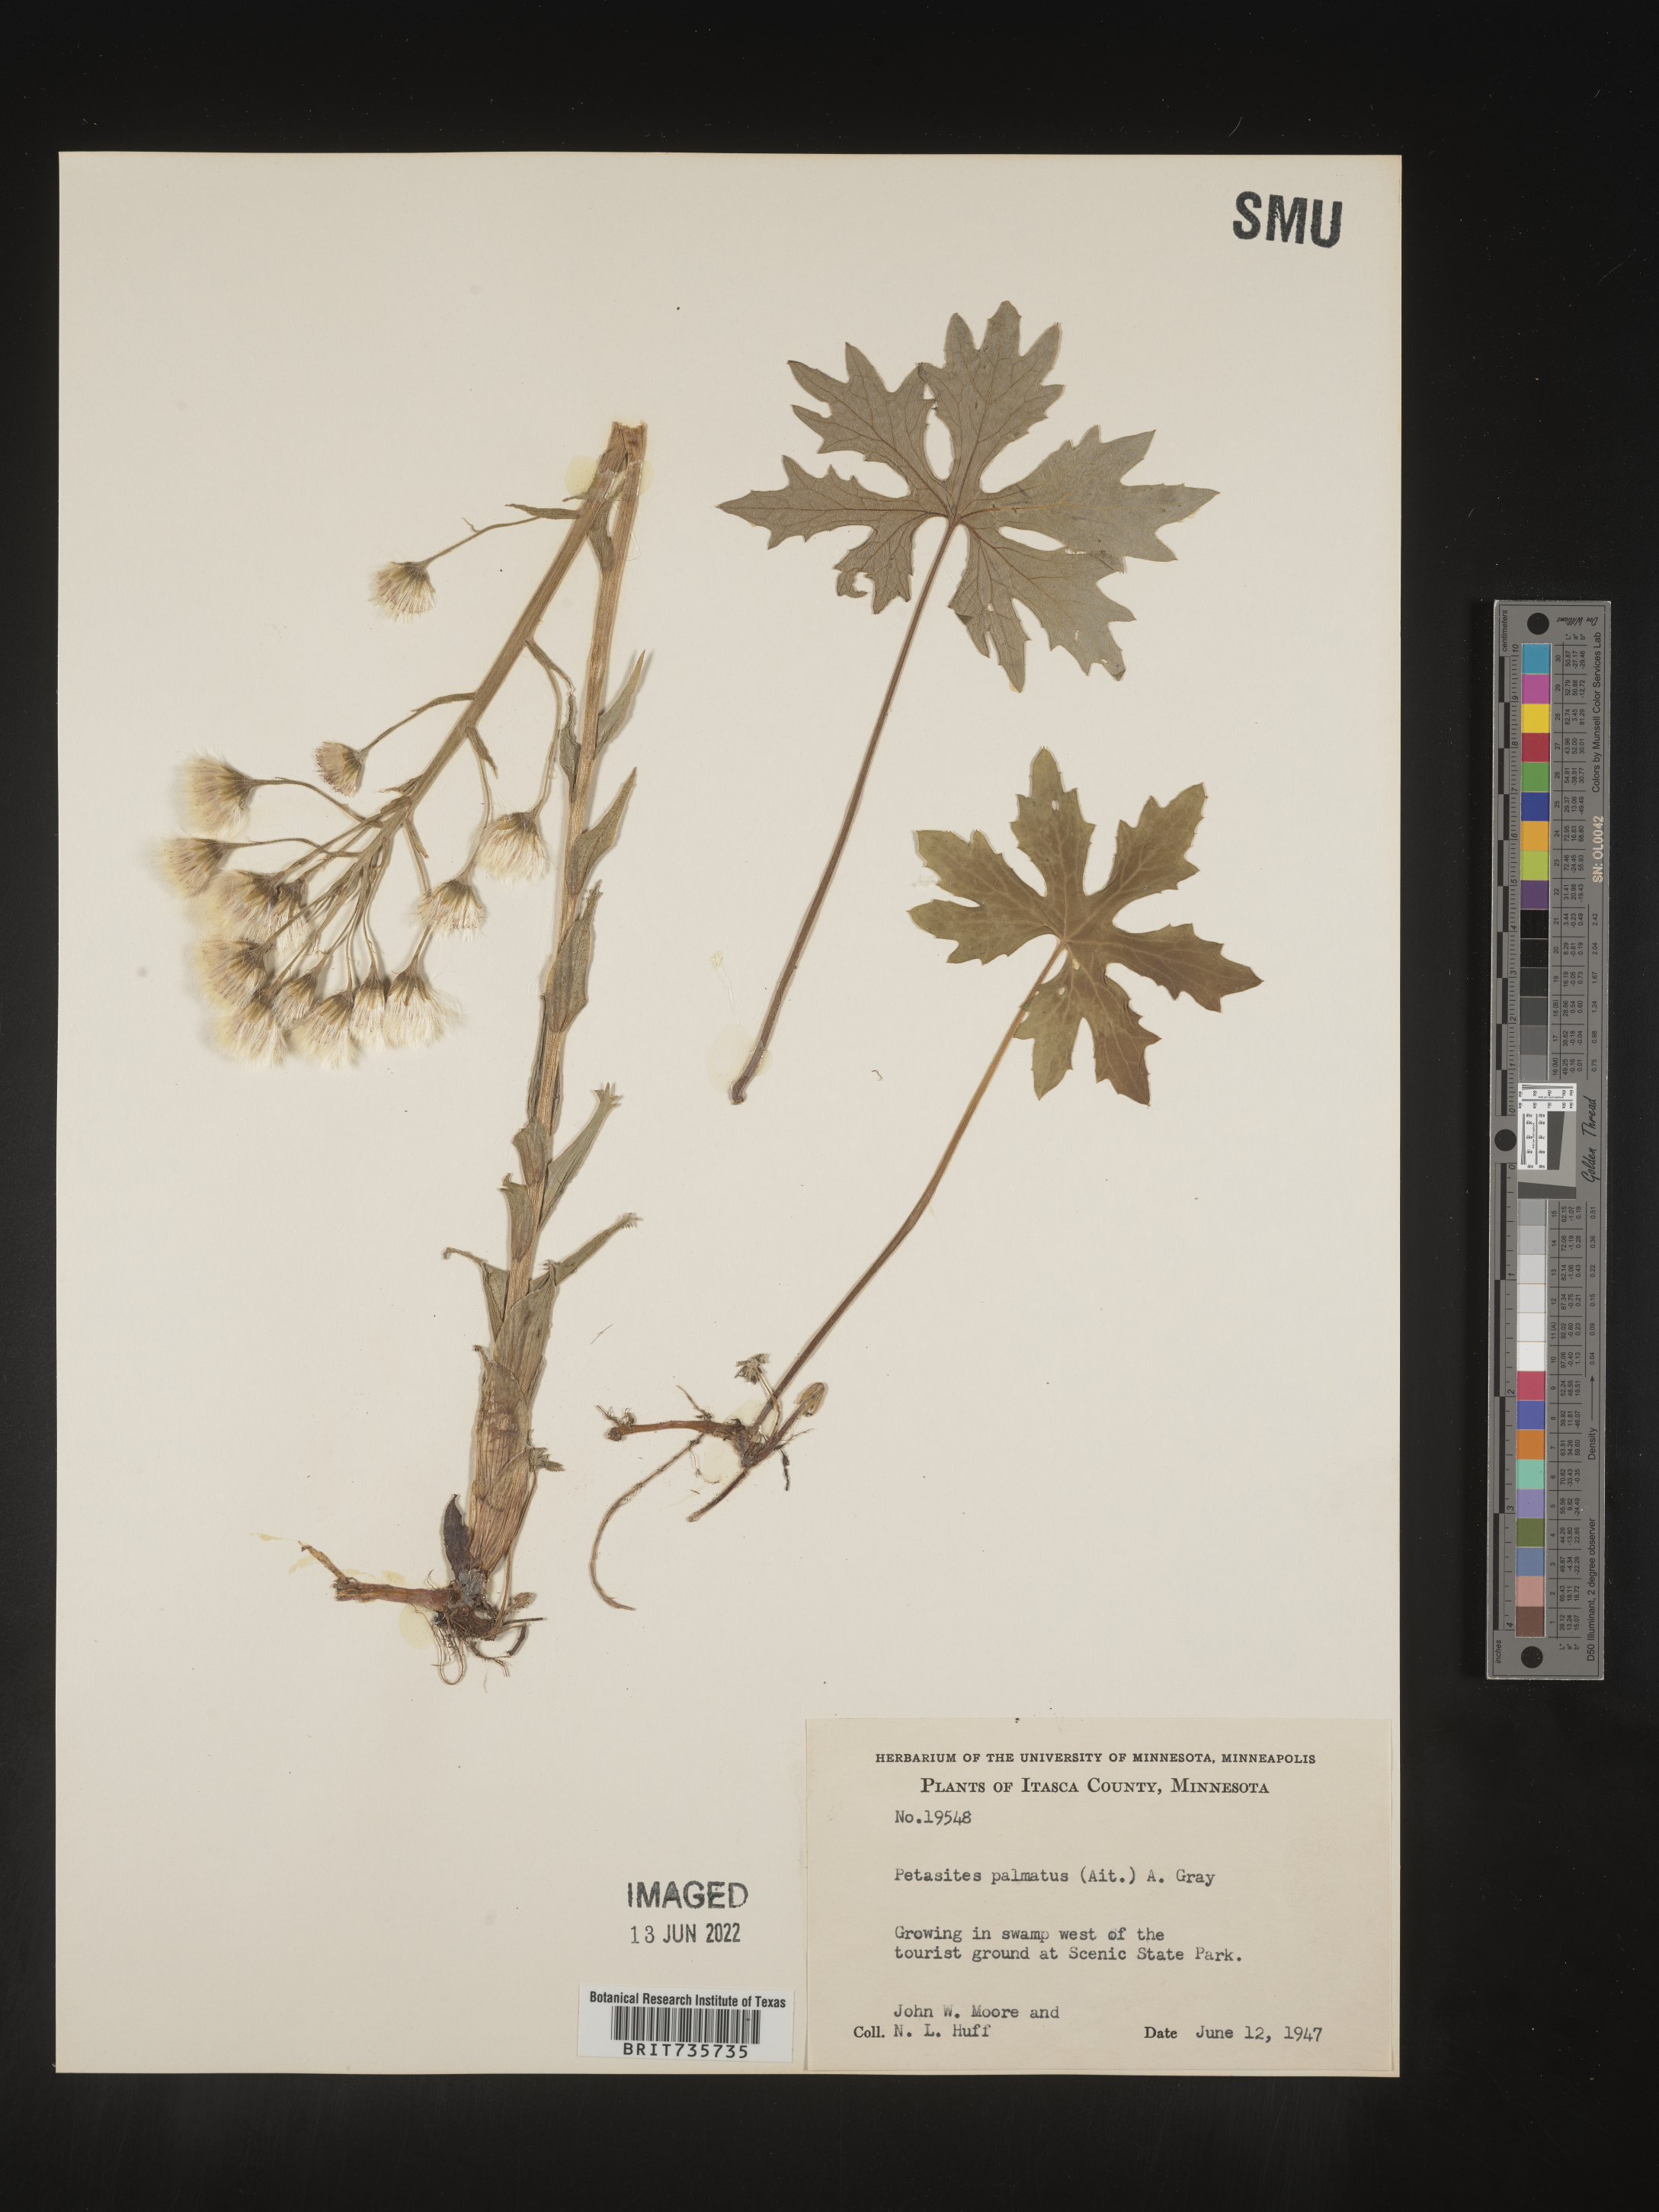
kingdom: Plantae
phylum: Tracheophyta
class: Magnoliopsida
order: Asterales
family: Asteraceae
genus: Petasites
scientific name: Petasites frigidus
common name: Arctic butterbur
